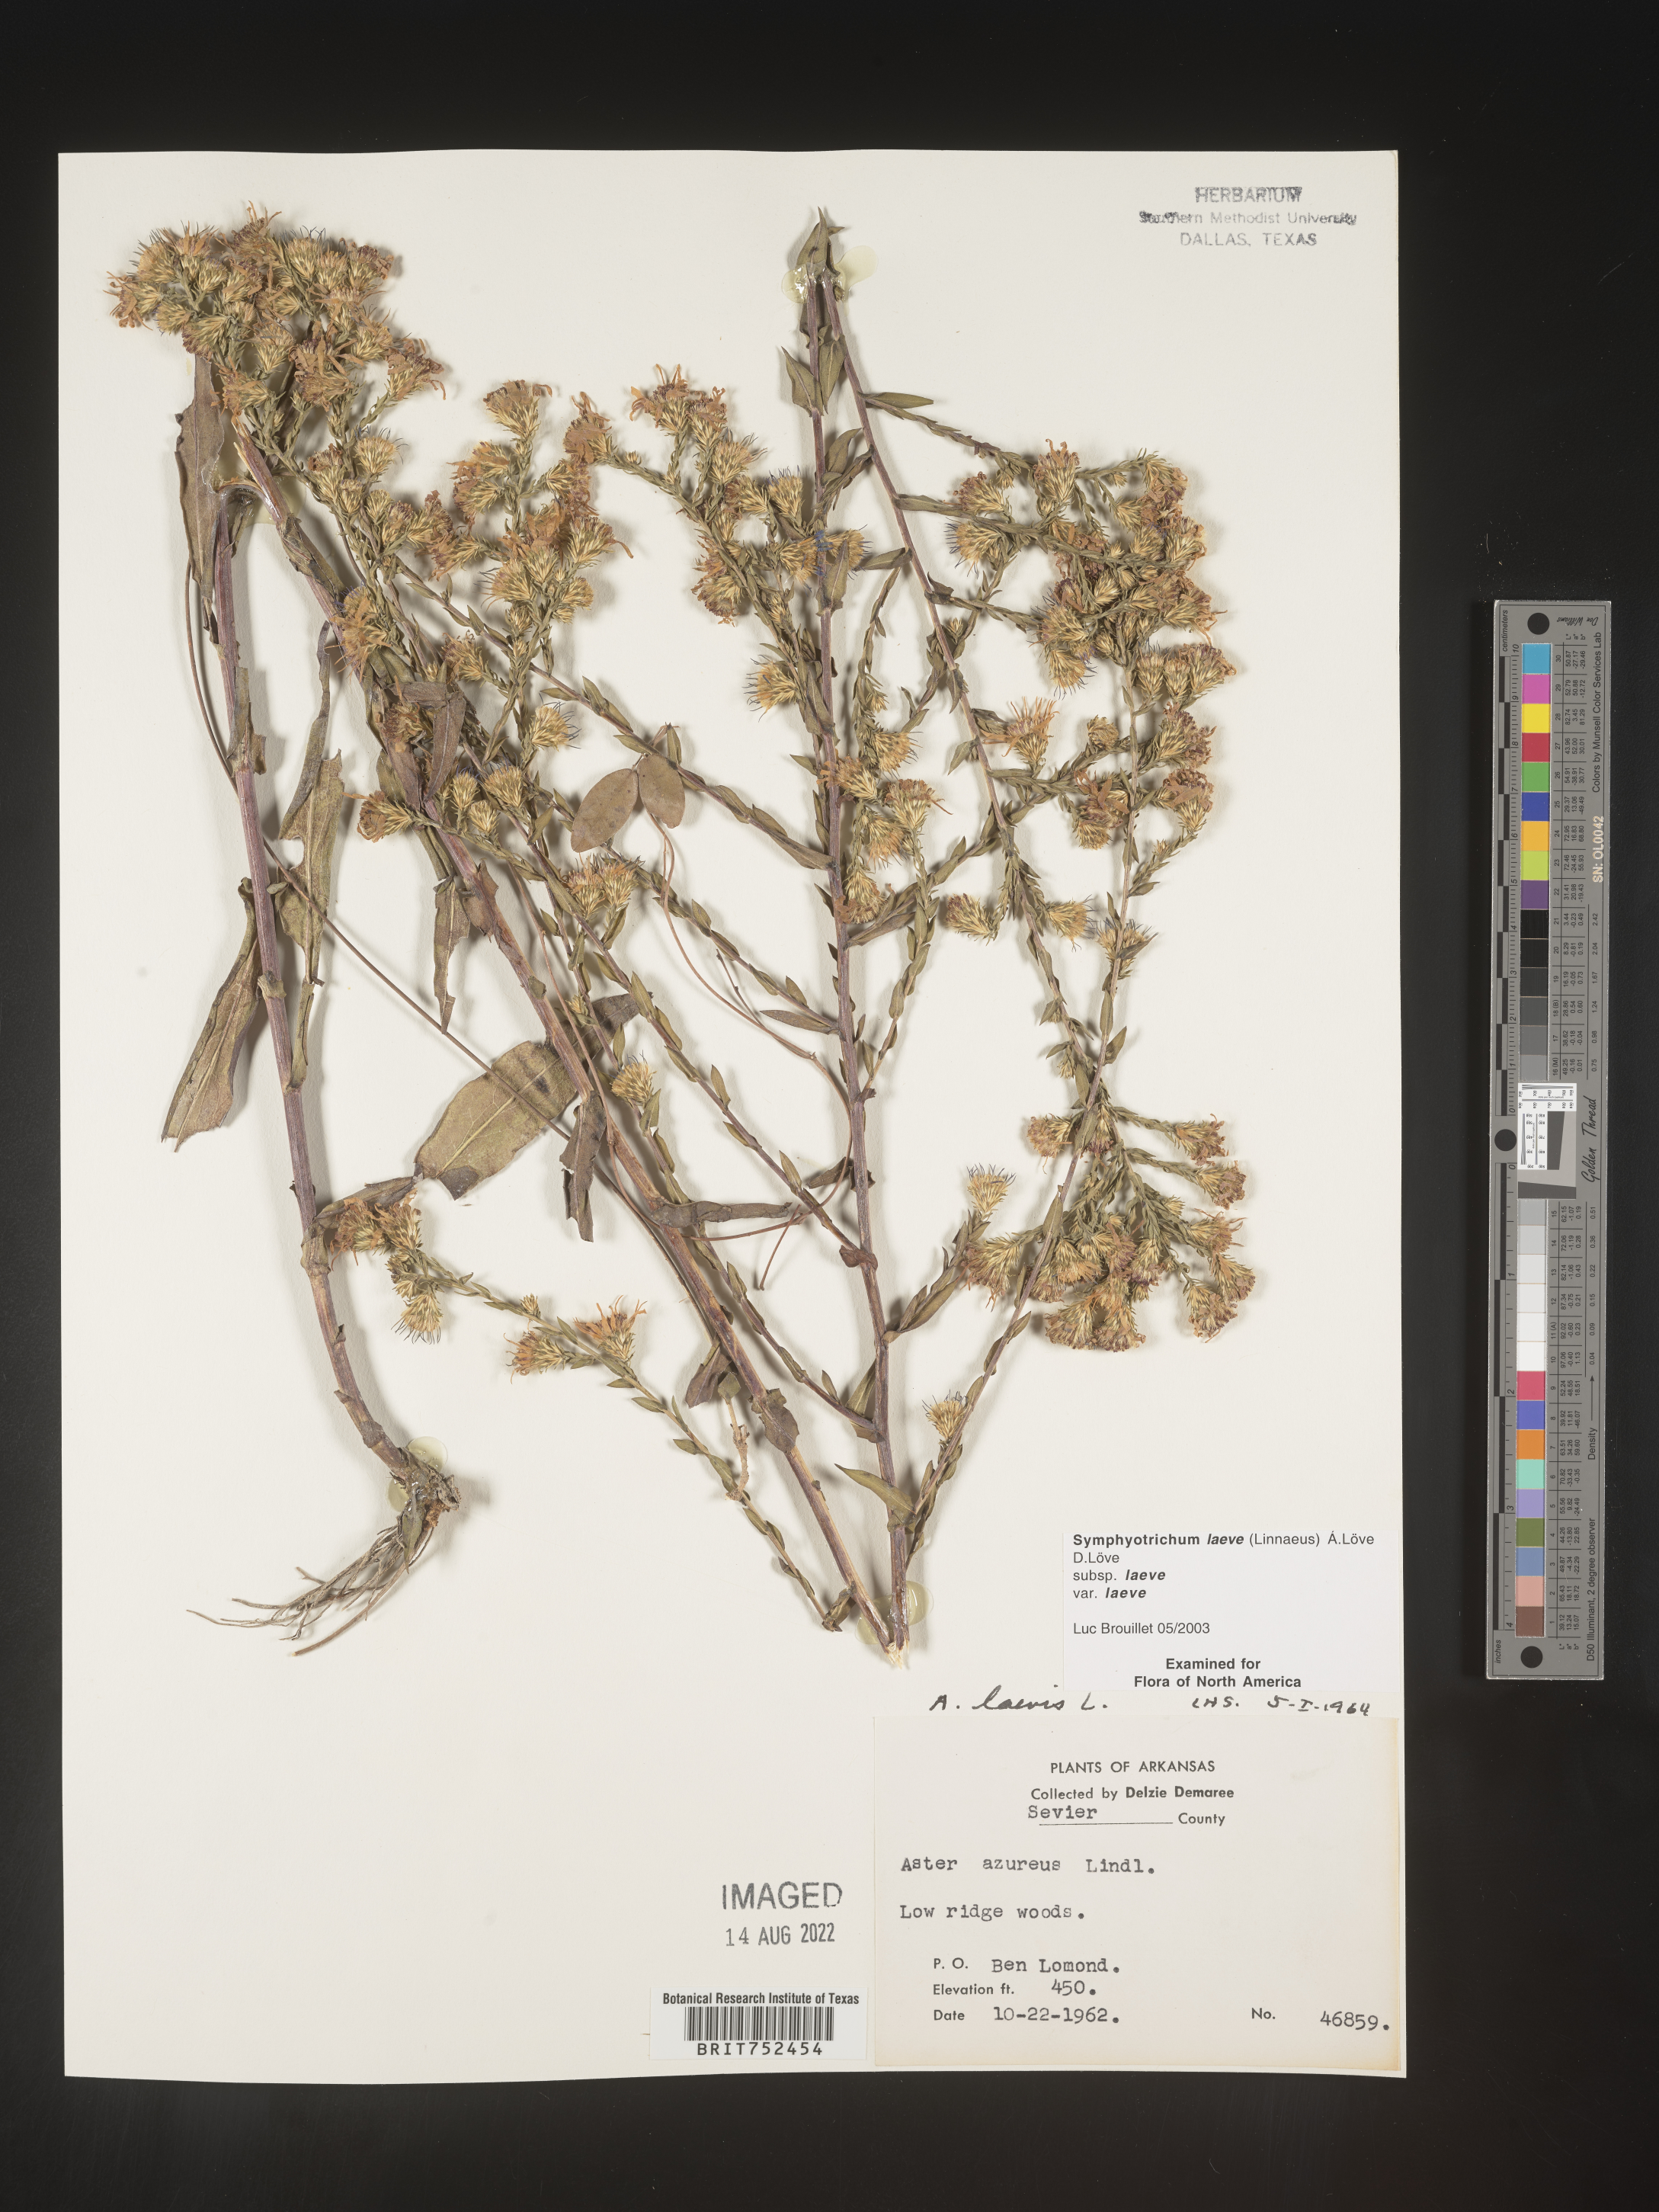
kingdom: Plantae
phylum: Tracheophyta
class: Magnoliopsida
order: Asterales
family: Asteraceae
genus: Symphyotrichum
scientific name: Symphyotrichum laeve
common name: Glaucous aster
